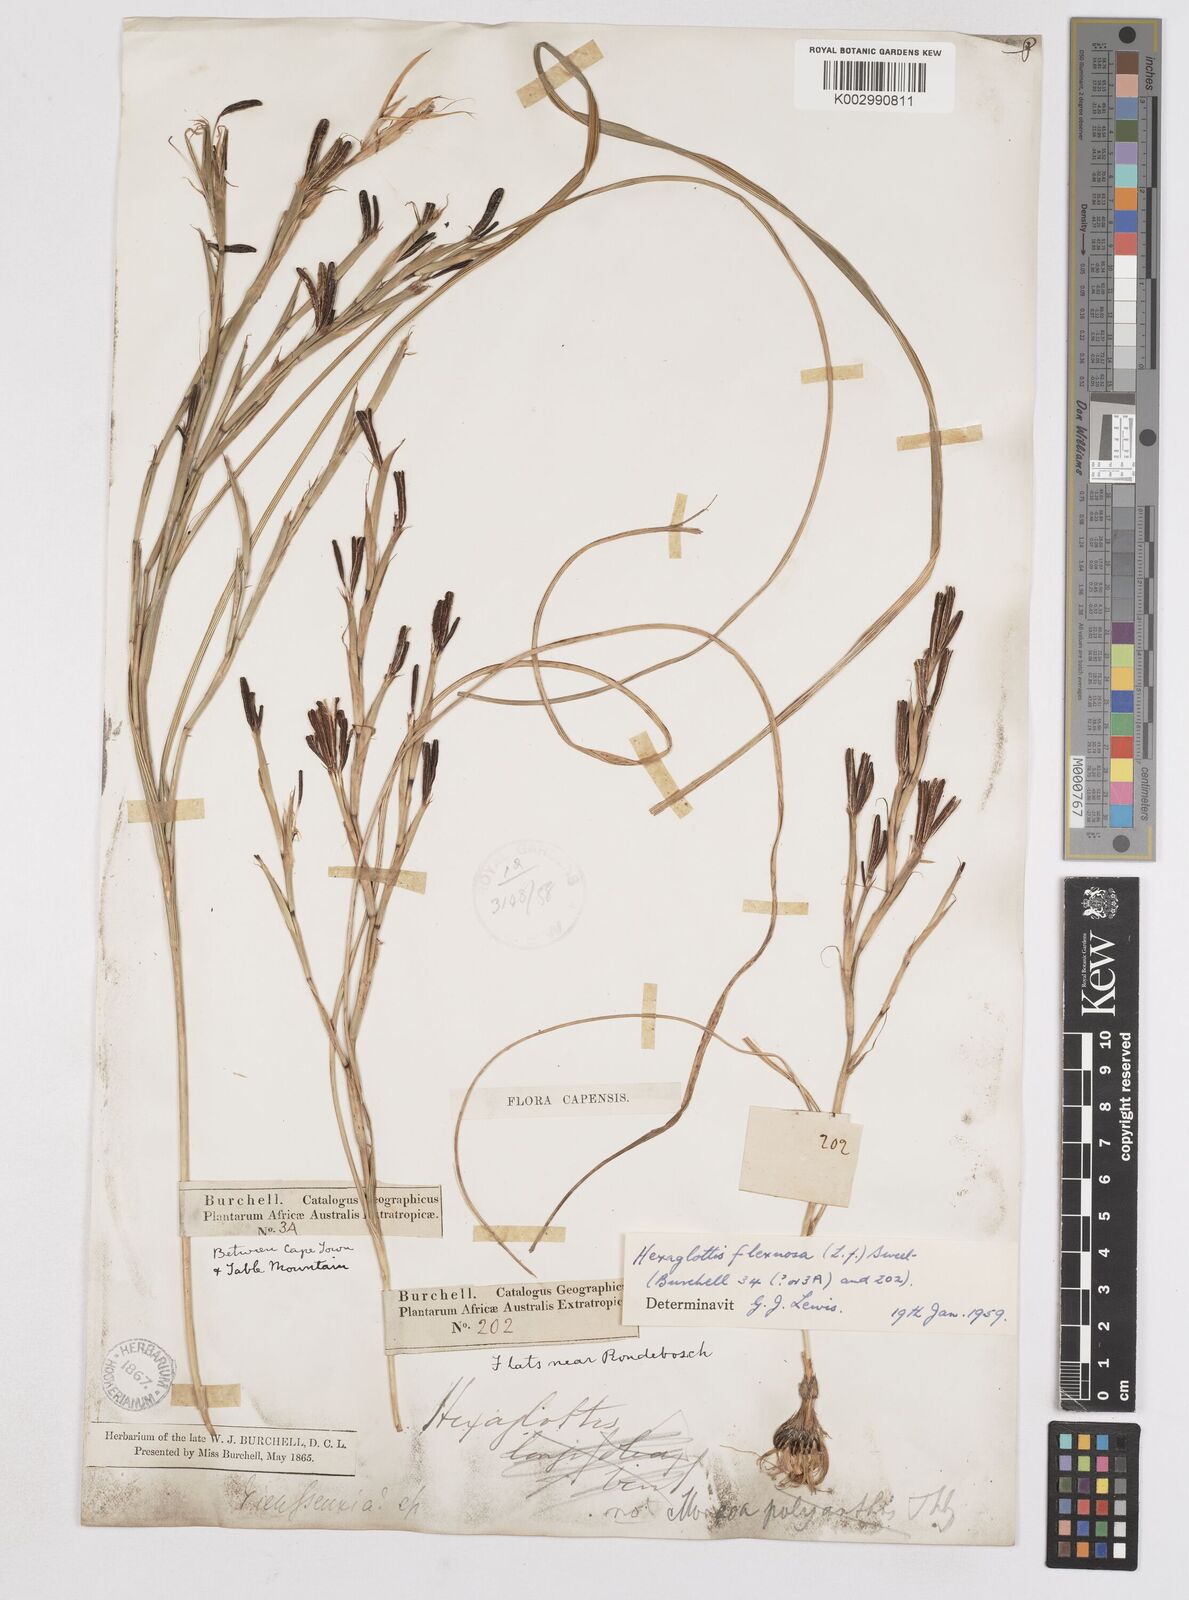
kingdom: Plantae
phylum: Tracheophyta
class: Liliopsida
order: Asparagales
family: Iridaceae
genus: Moraea
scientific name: Moraea lewisiae
